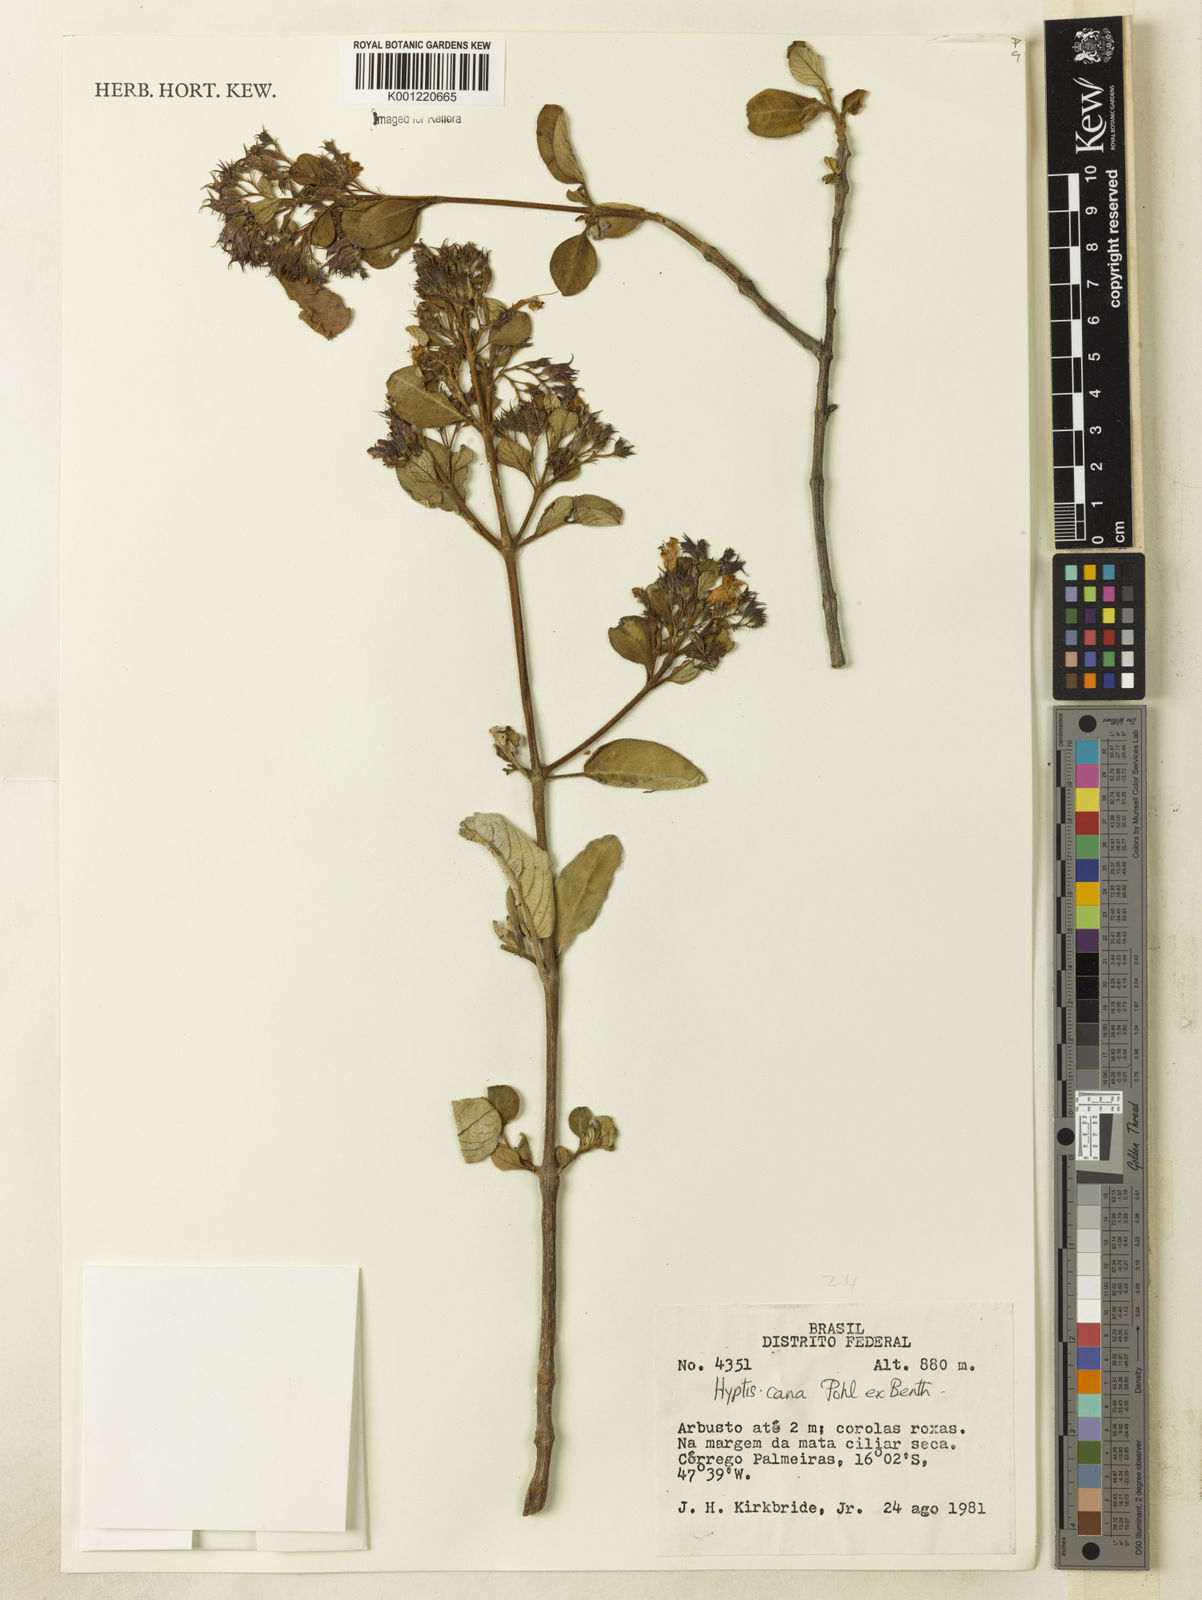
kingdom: Plantae
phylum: Tracheophyta
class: Magnoliopsida
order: Lamiales
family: Lamiaceae
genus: Hyptidendron
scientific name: Hyptidendron canum
